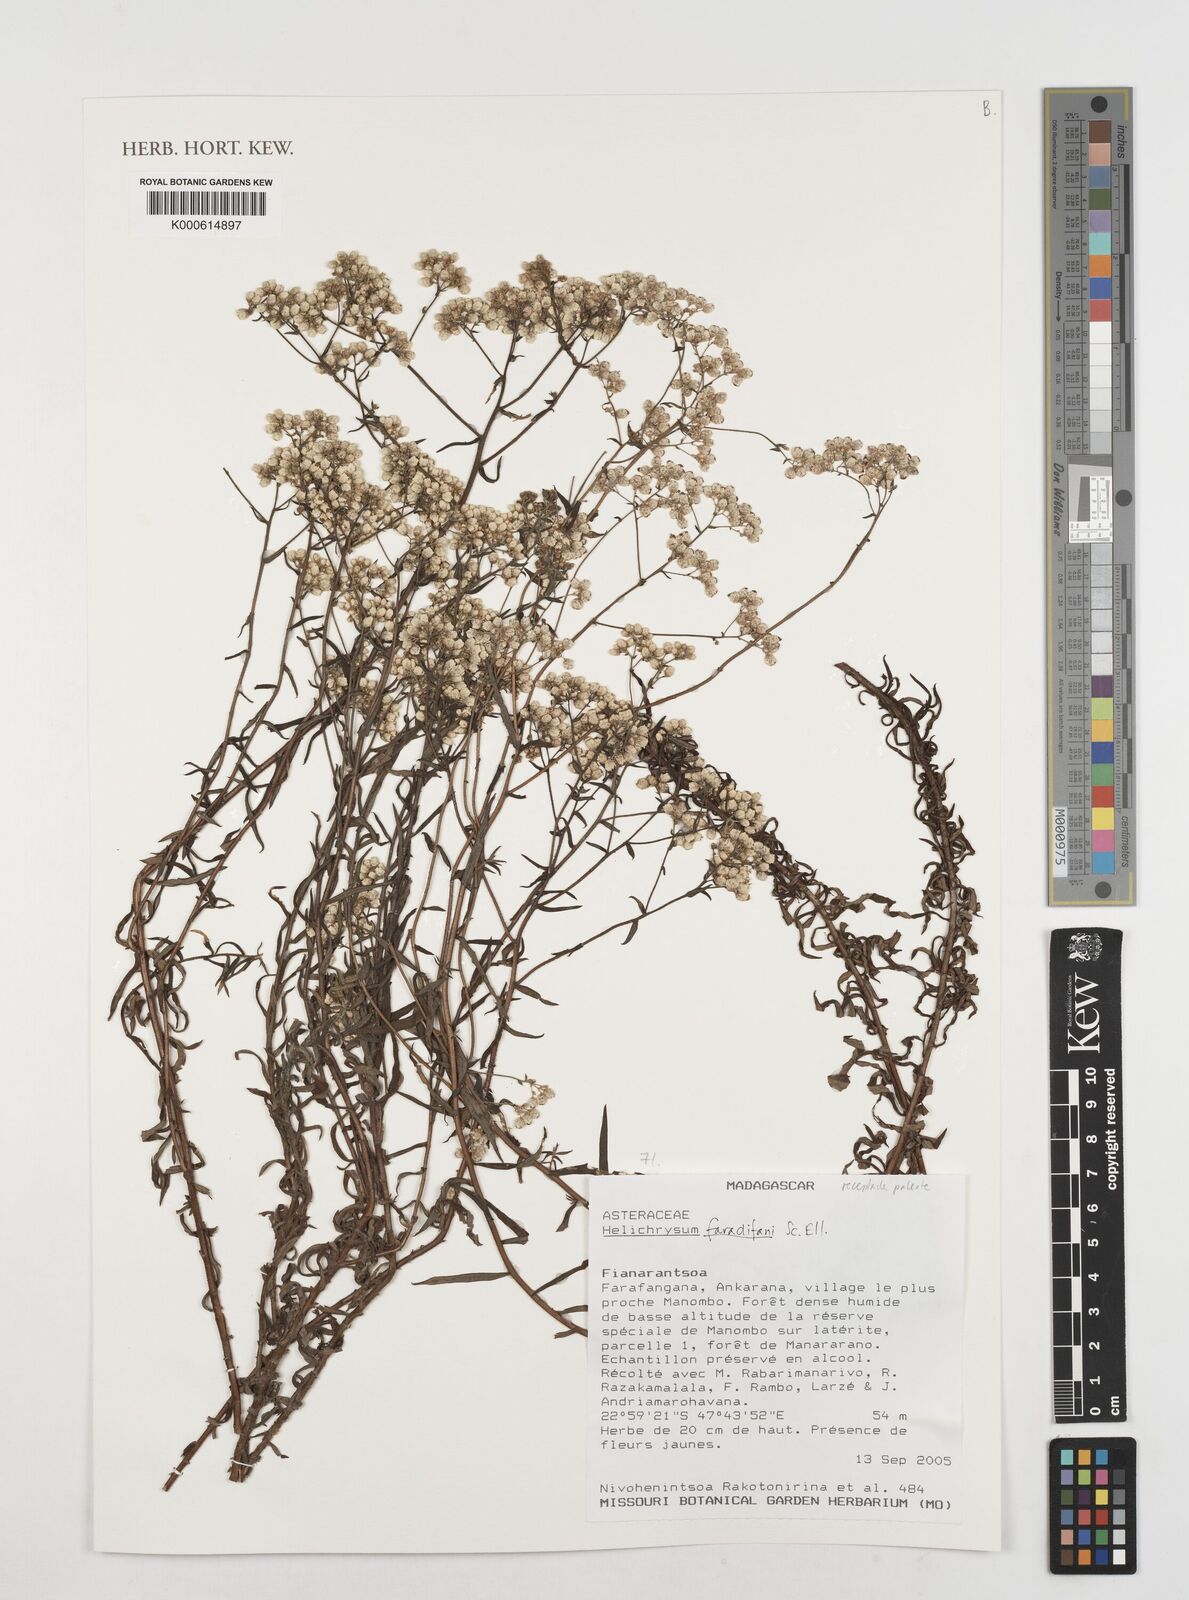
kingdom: Plantae
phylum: Tracheophyta
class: Magnoliopsida
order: Asterales
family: Asteraceae
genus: Helichrysum
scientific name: Helichrysum faradifani
